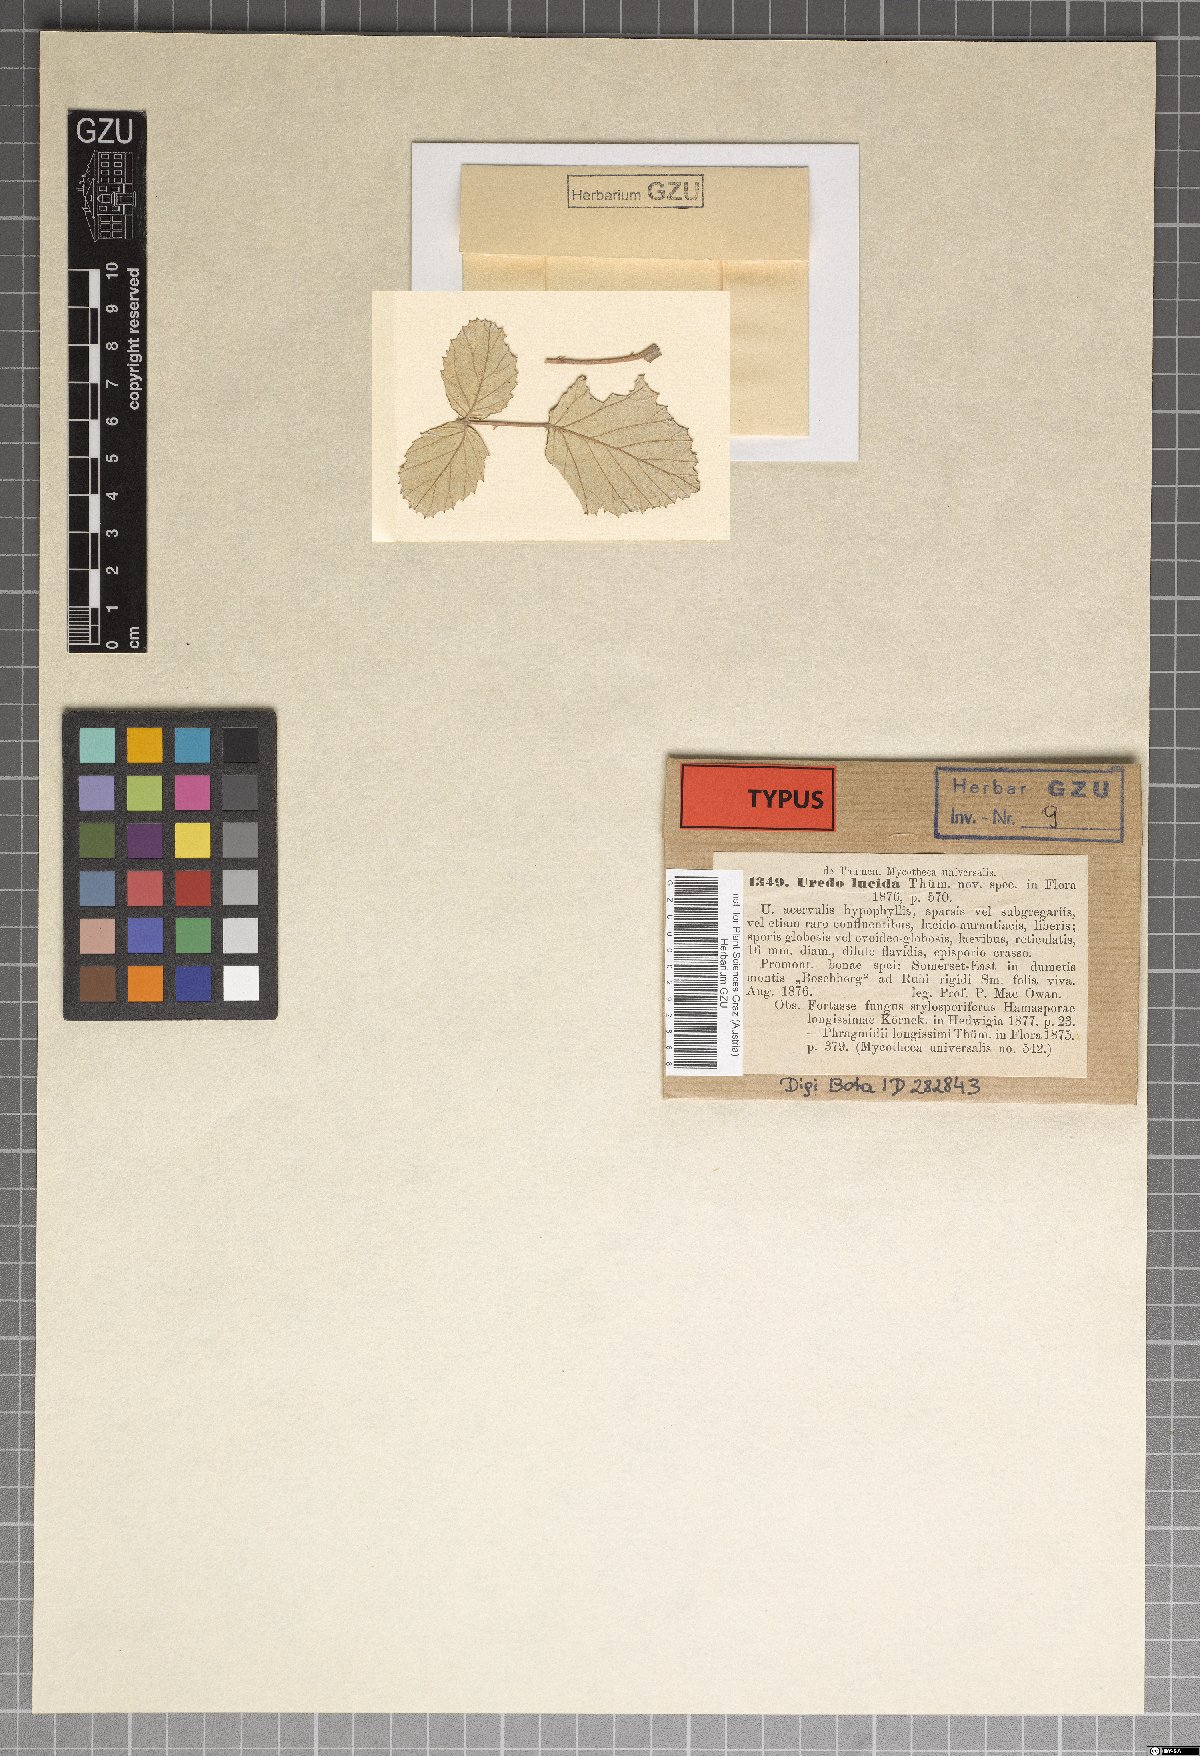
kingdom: Fungi
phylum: Basidiomycota
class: Pucciniomycetes
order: Pucciniales
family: Phragmidiaceae
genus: Hamaspora
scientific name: Hamaspora longissima
